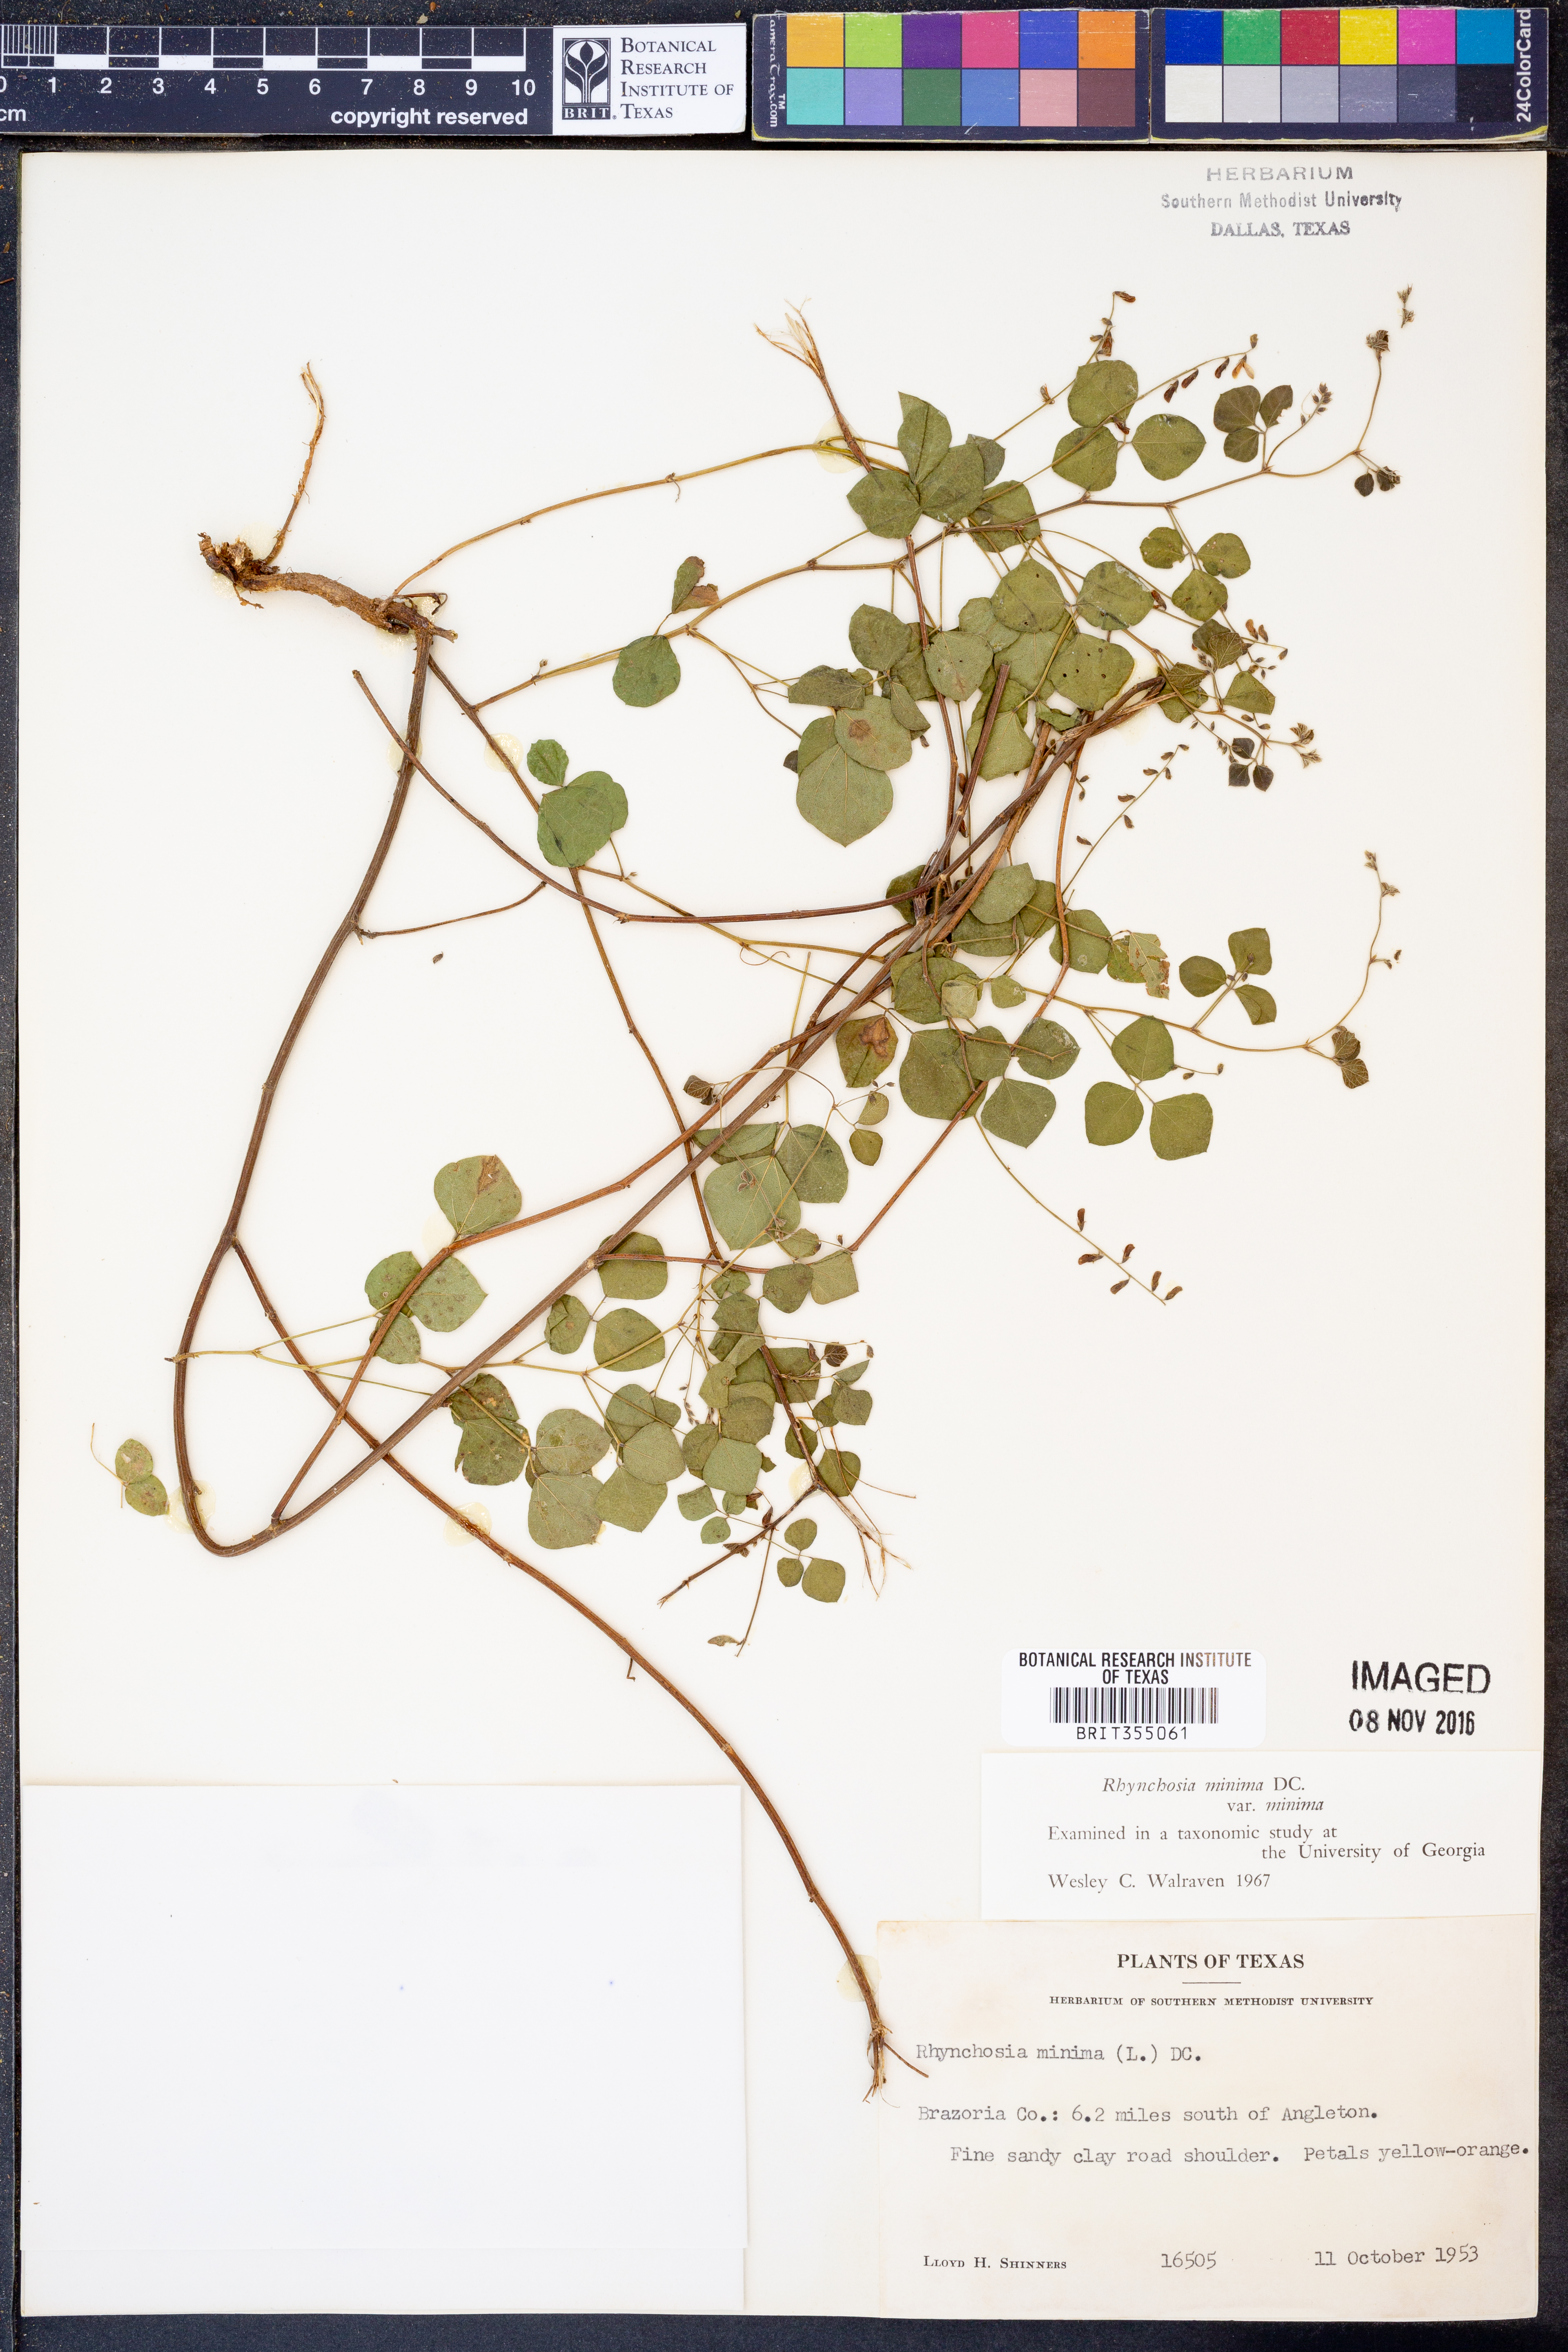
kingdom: Plantae
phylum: Tracheophyta
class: Magnoliopsida
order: Fabales
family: Fabaceae
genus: Rhynchosia
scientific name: Rhynchosia minima
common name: Least snoutbean
